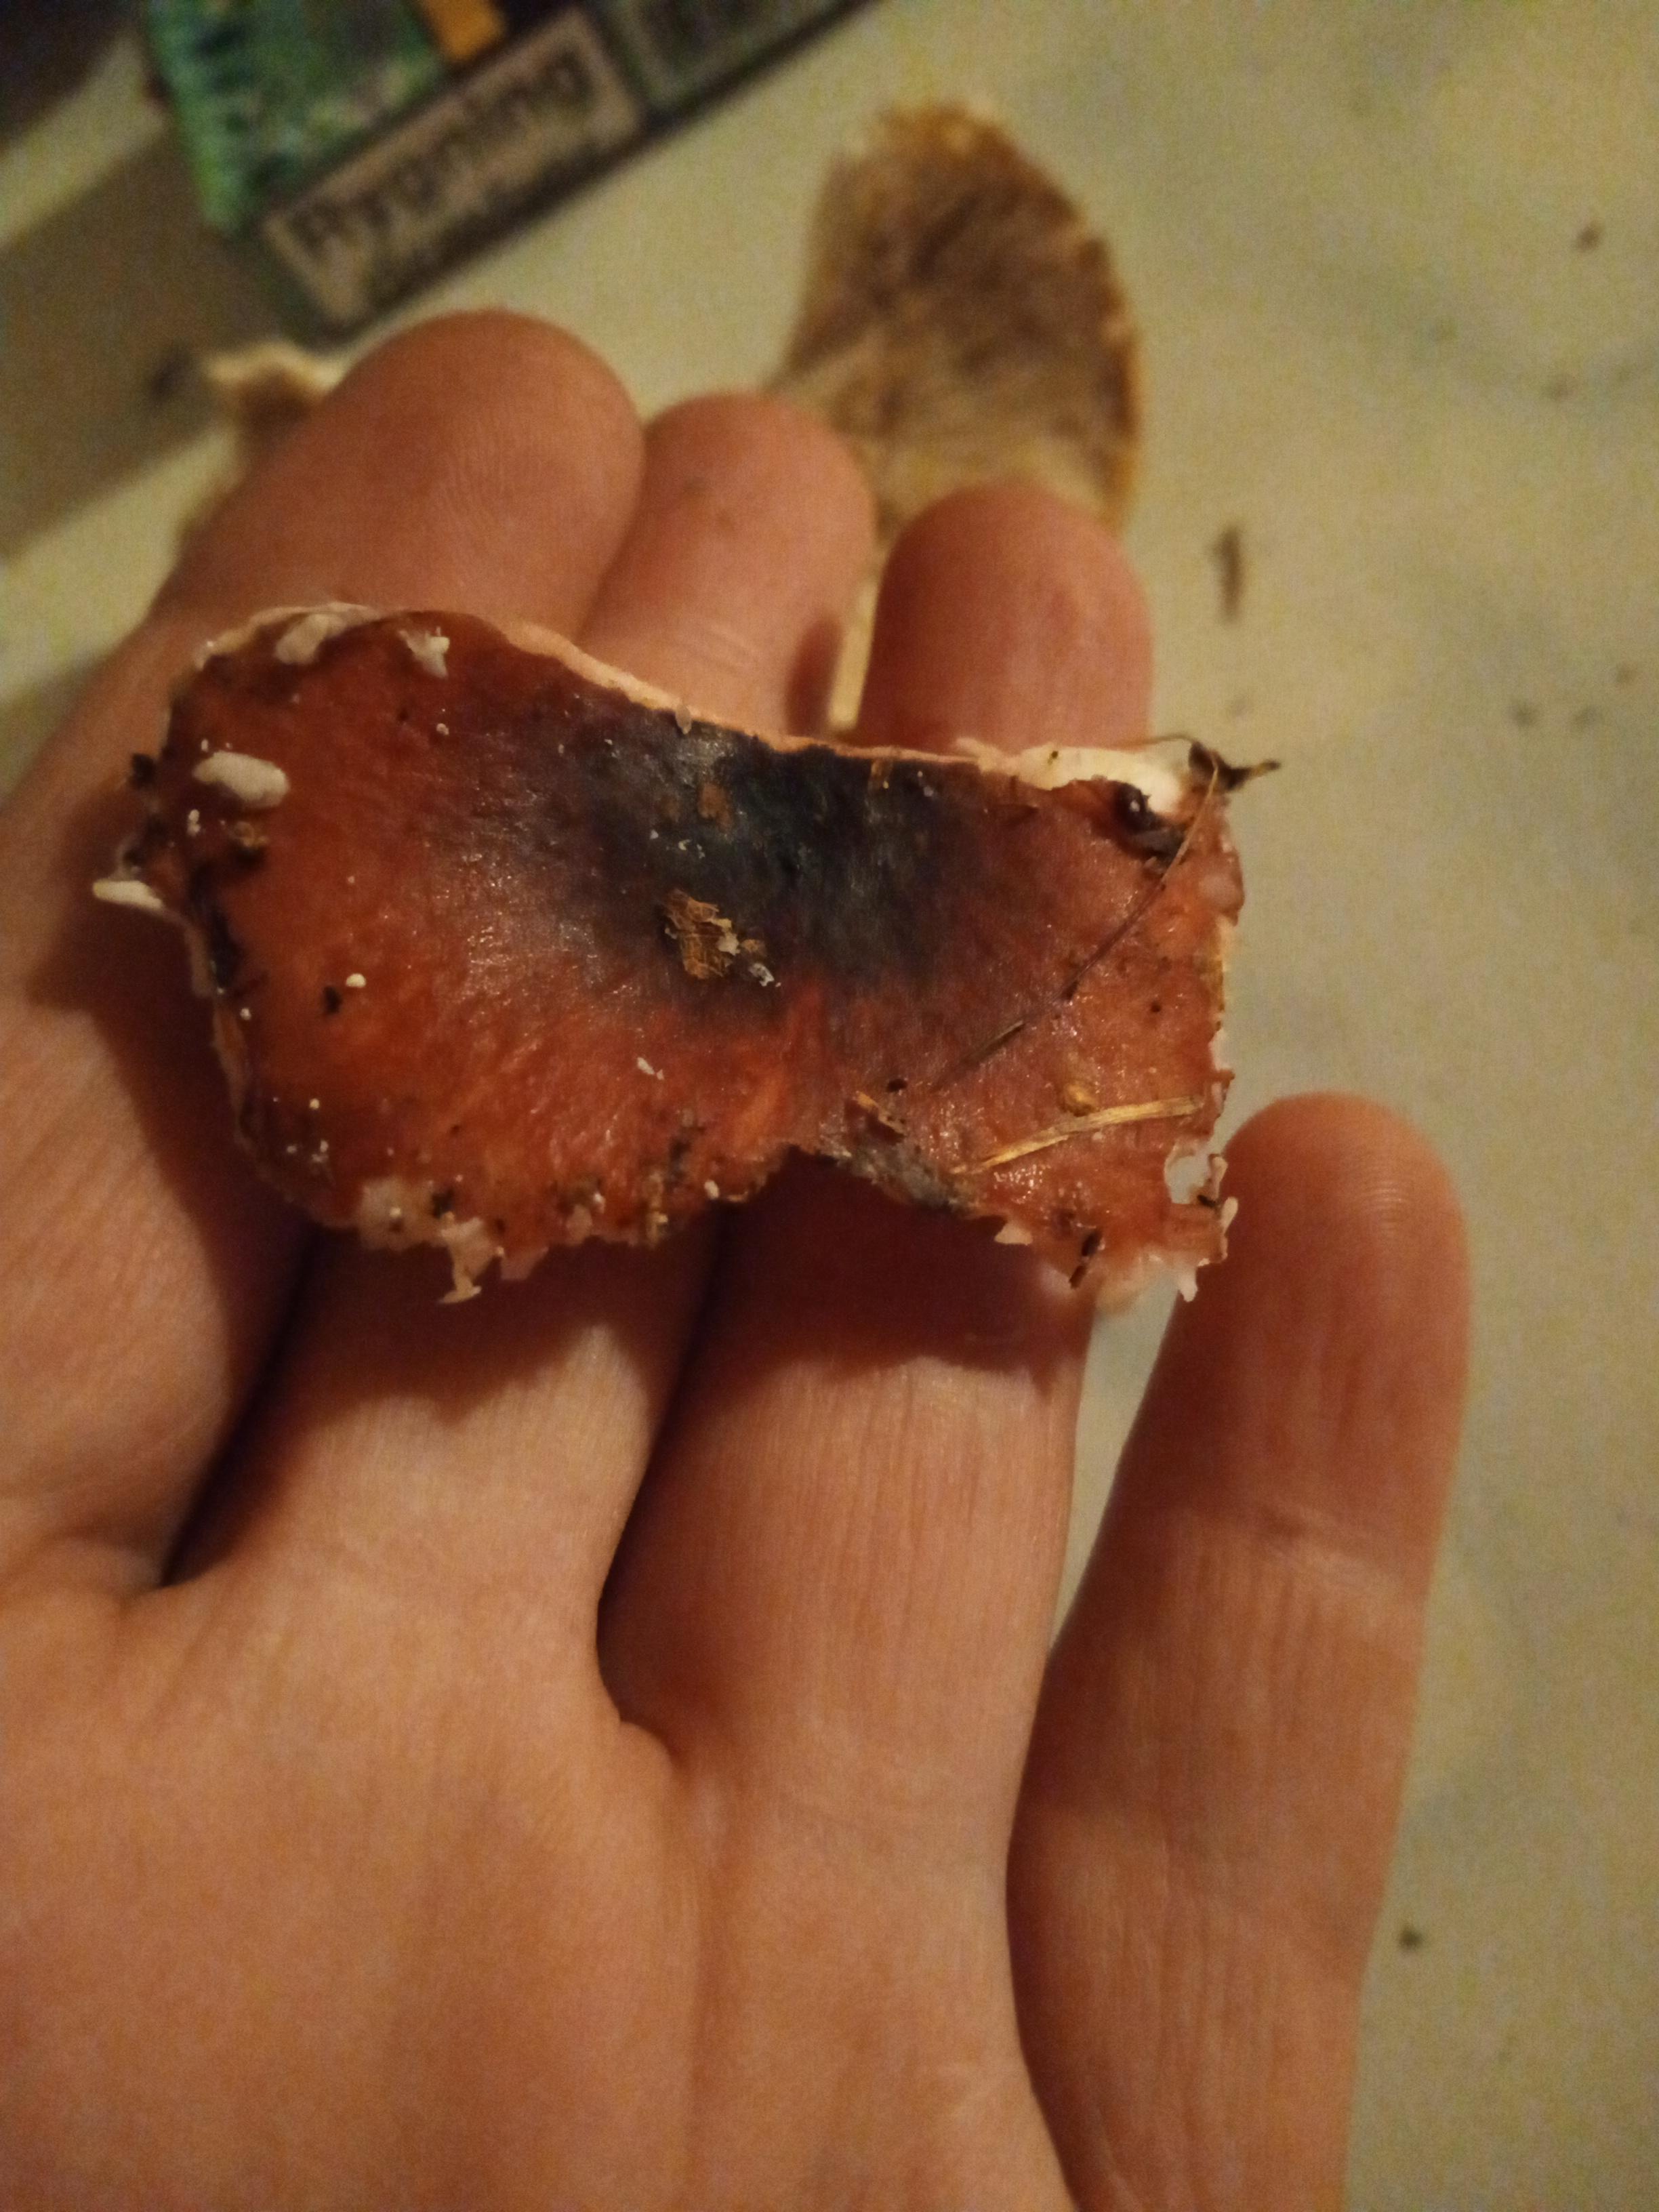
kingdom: Fungi
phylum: Basidiomycota
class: Agaricomycetes
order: Russulales
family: Russulaceae
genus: Russula
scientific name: Russula fragilis
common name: savbladet skørhat
